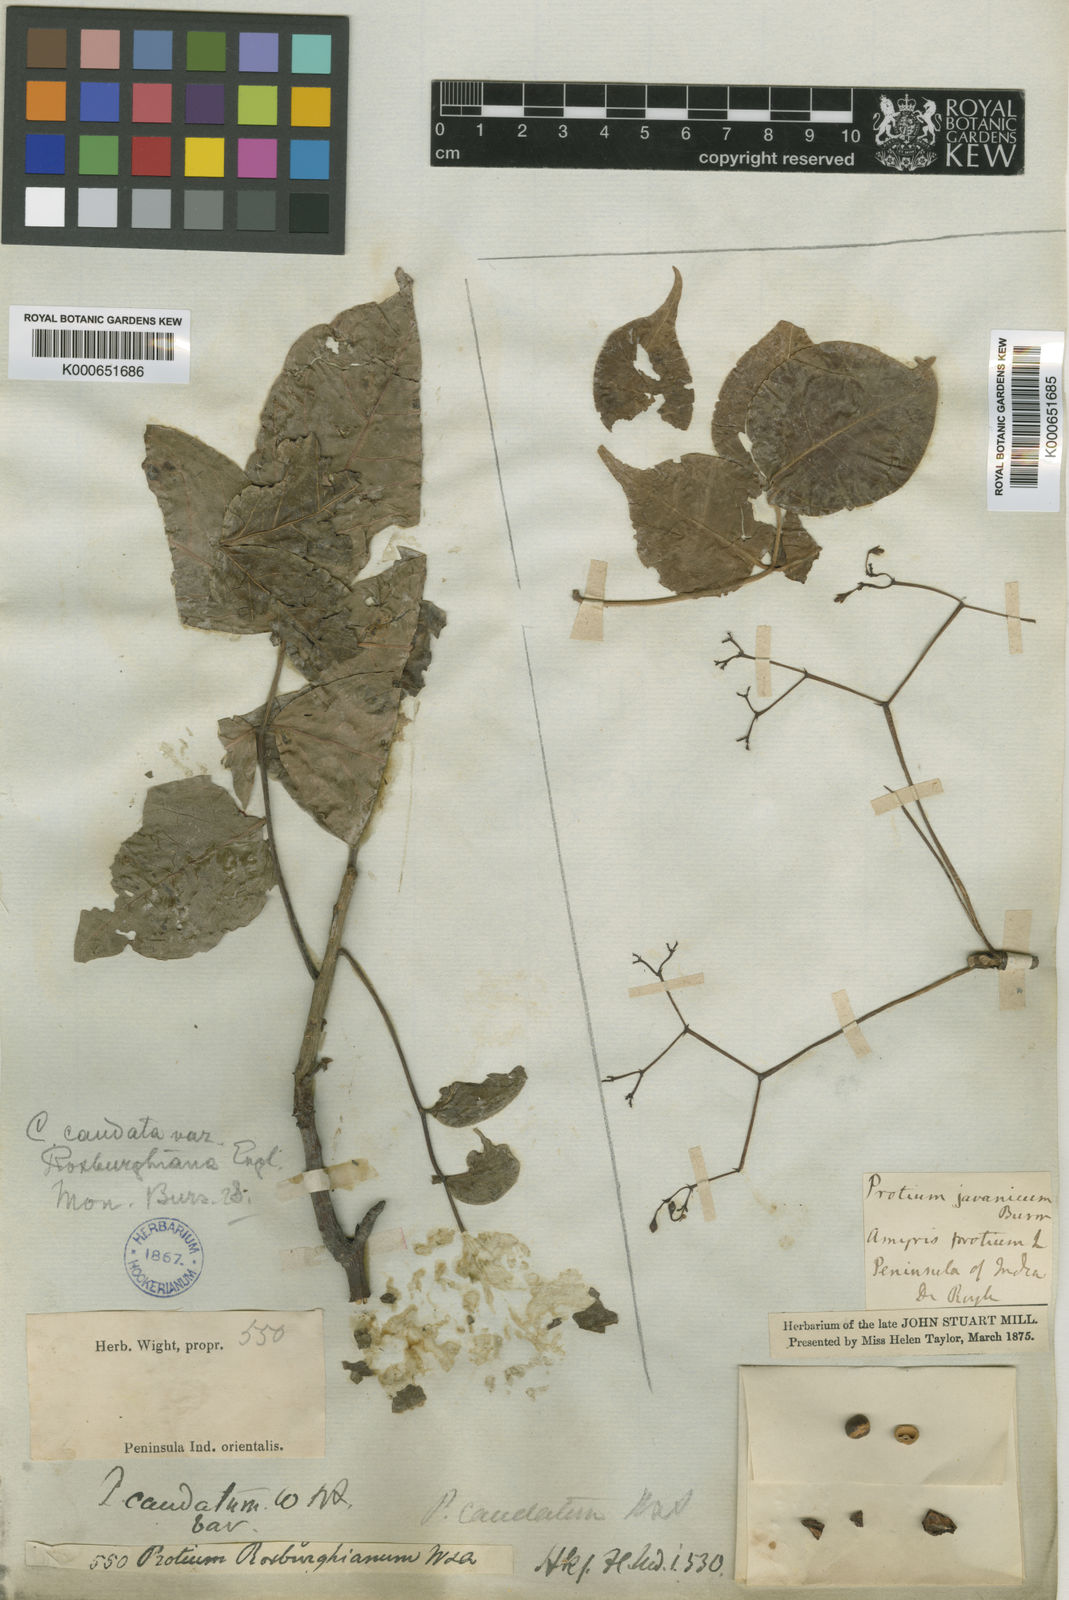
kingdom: Plantae
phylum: Tracheophyta
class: Magnoliopsida
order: Sapindales
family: Burseraceae
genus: Commiphora
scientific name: Commiphora caudata
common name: Hill-mango
